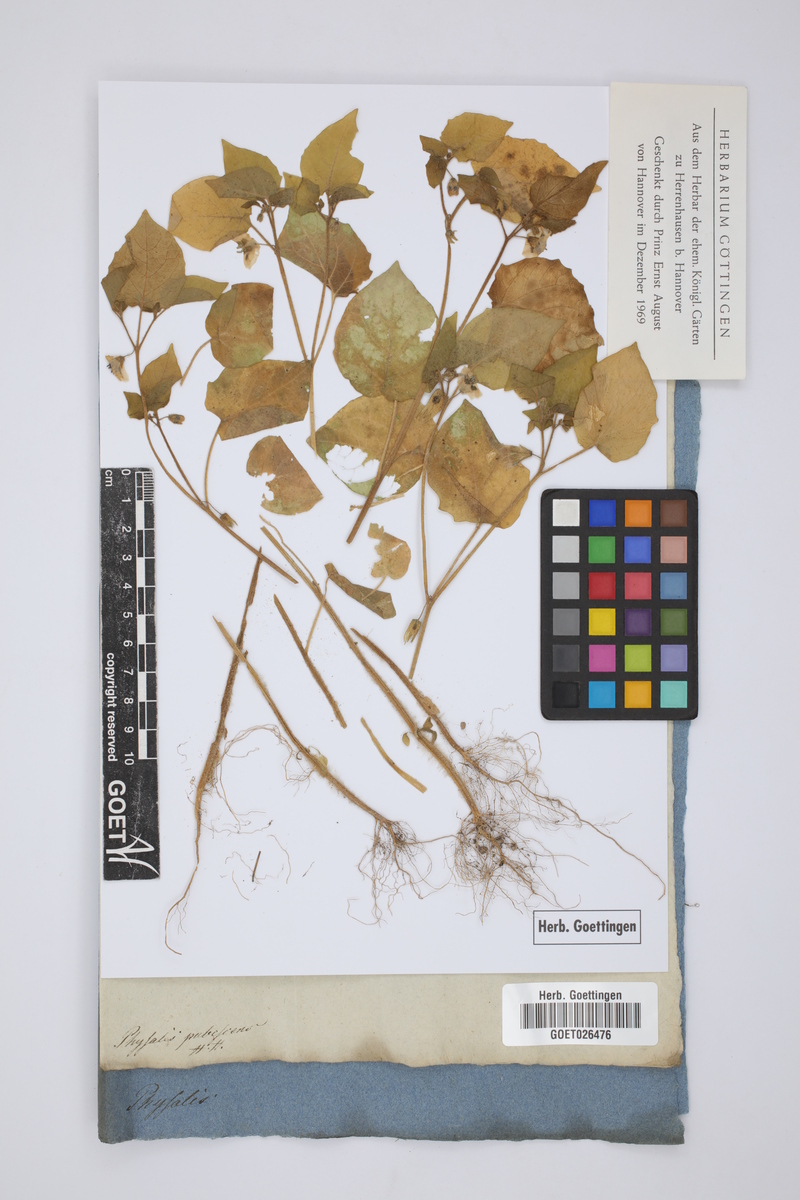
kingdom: Plantae
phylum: Tracheophyta
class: Magnoliopsida
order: Solanales
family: Solanaceae
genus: Physalis
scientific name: Physalis pubescens
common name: Downy ground-cherry
